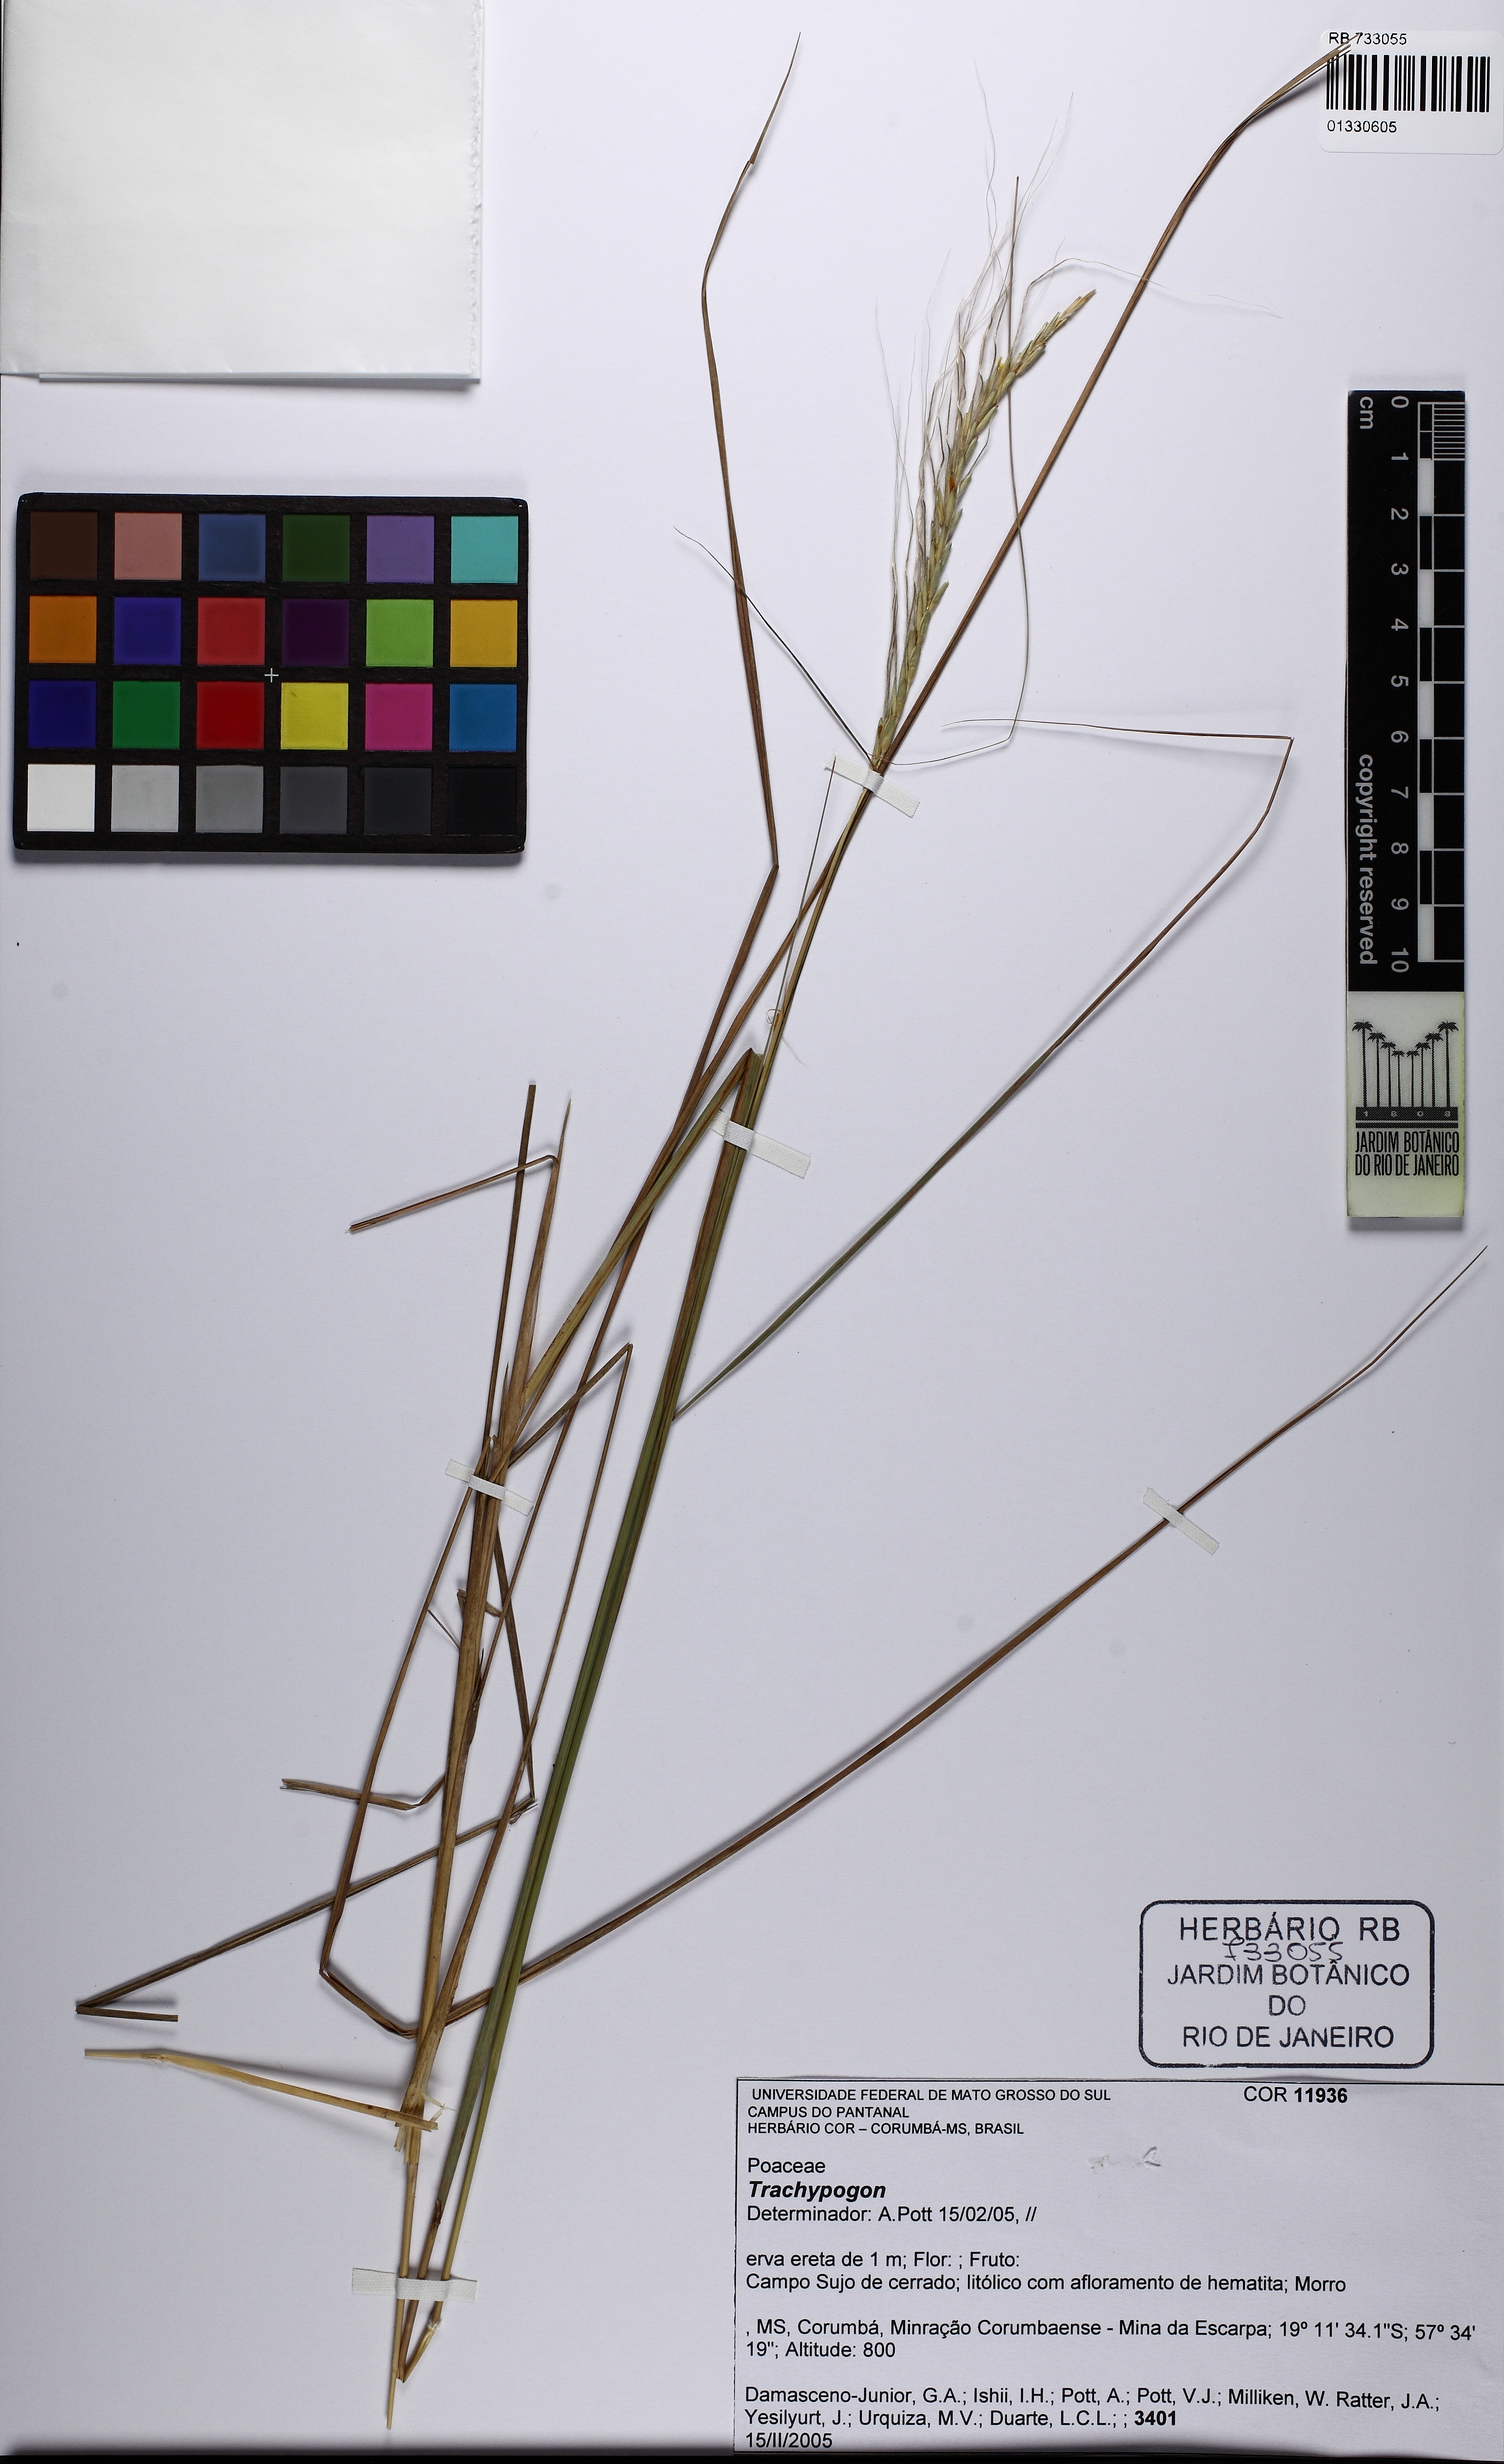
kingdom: Plantae
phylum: Tracheophyta
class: Liliopsida
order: Poales
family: Poaceae
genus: Trachypogon
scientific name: Trachypogon
